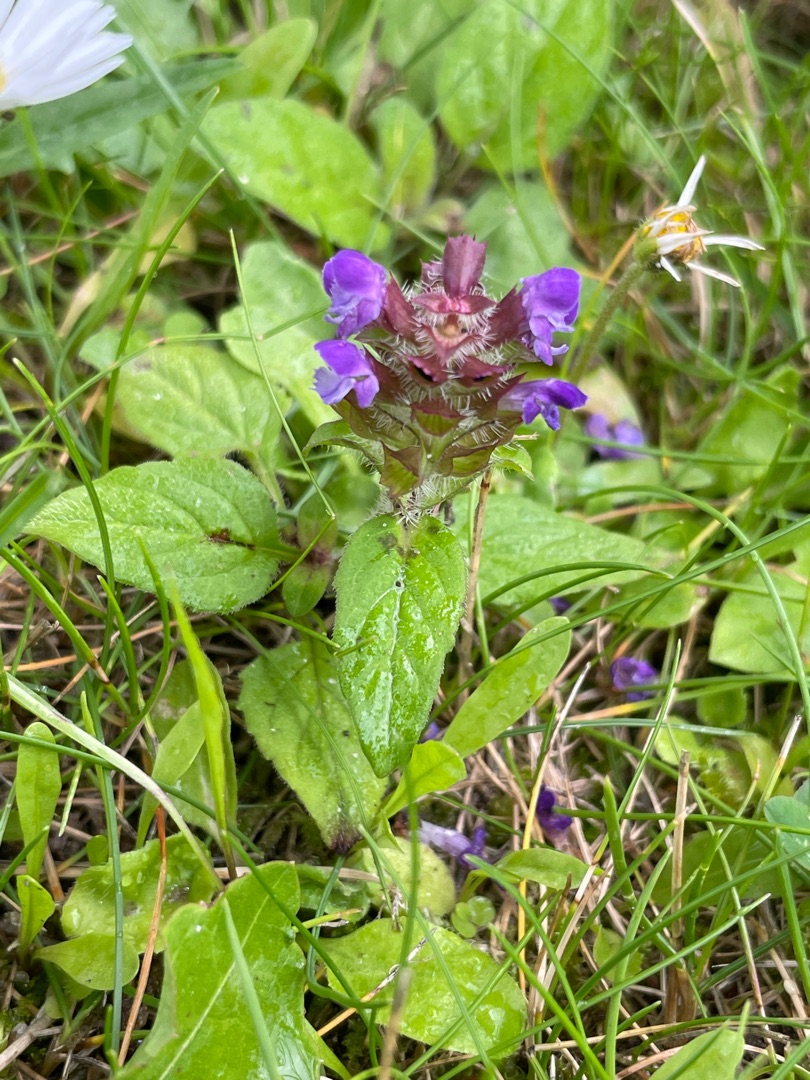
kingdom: Plantae
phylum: Tracheophyta
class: Magnoliopsida
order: Lamiales
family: Lamiaceae
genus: Prunella
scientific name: Prunella vulgaris
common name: Almindelig brunelle
